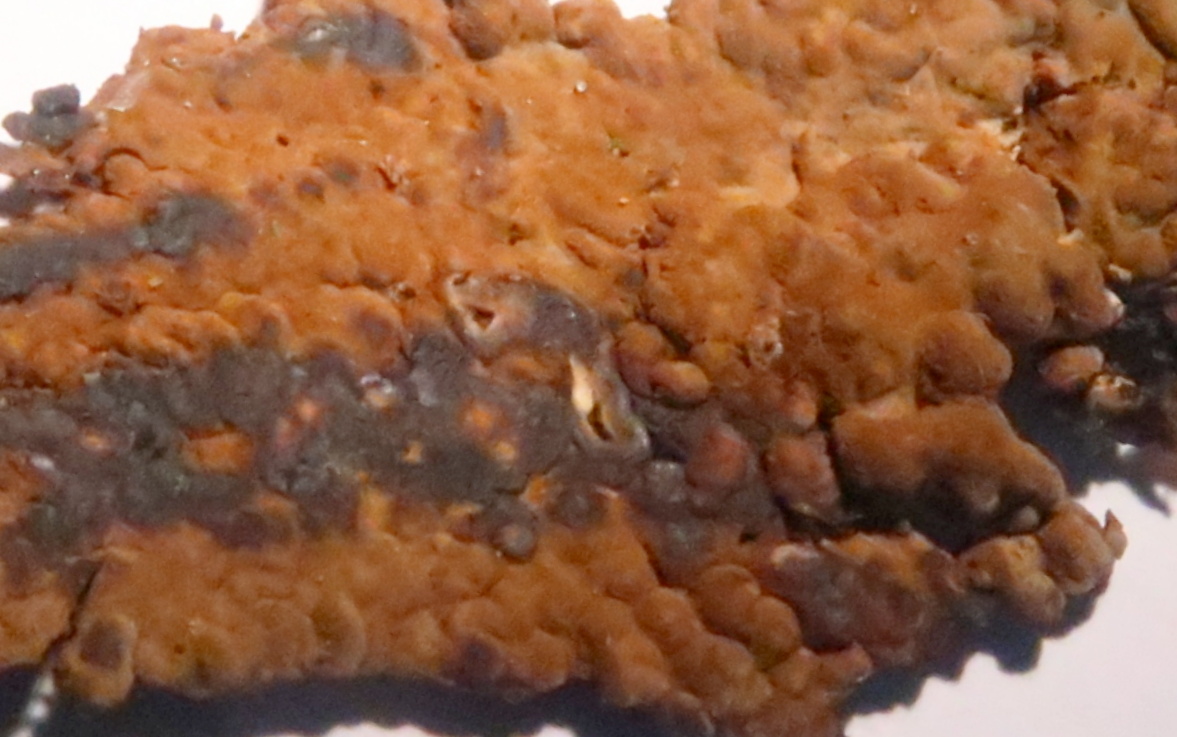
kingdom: Fungi
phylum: Basidiomycota
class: Agaricomycetes
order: Boletales
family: Coniophoraceae
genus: Coniophora
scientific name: Coniophora puteana
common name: gul tømmersvamp
